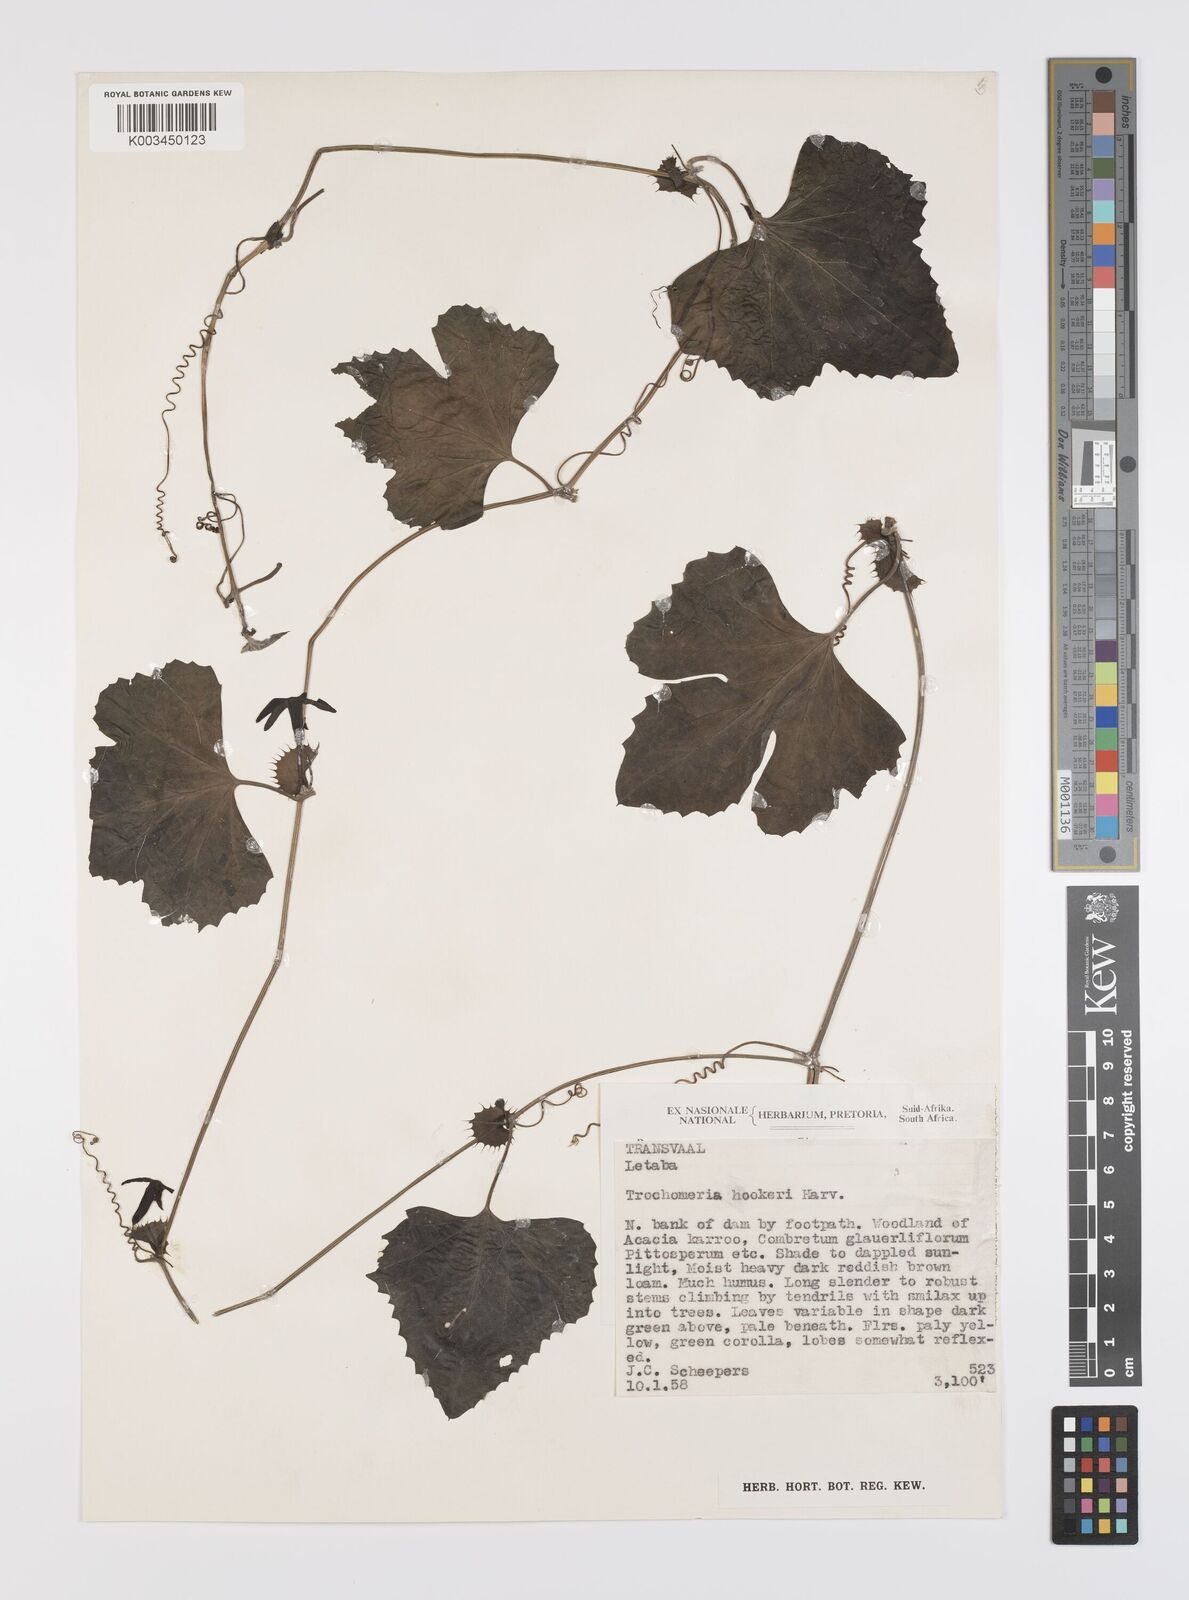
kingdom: Plantae
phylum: Tracheophyta
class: Magnoliopsida
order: Cucurbitales
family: Cucurbitaceae
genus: Trochomeria
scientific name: Trochomeria hookeri
